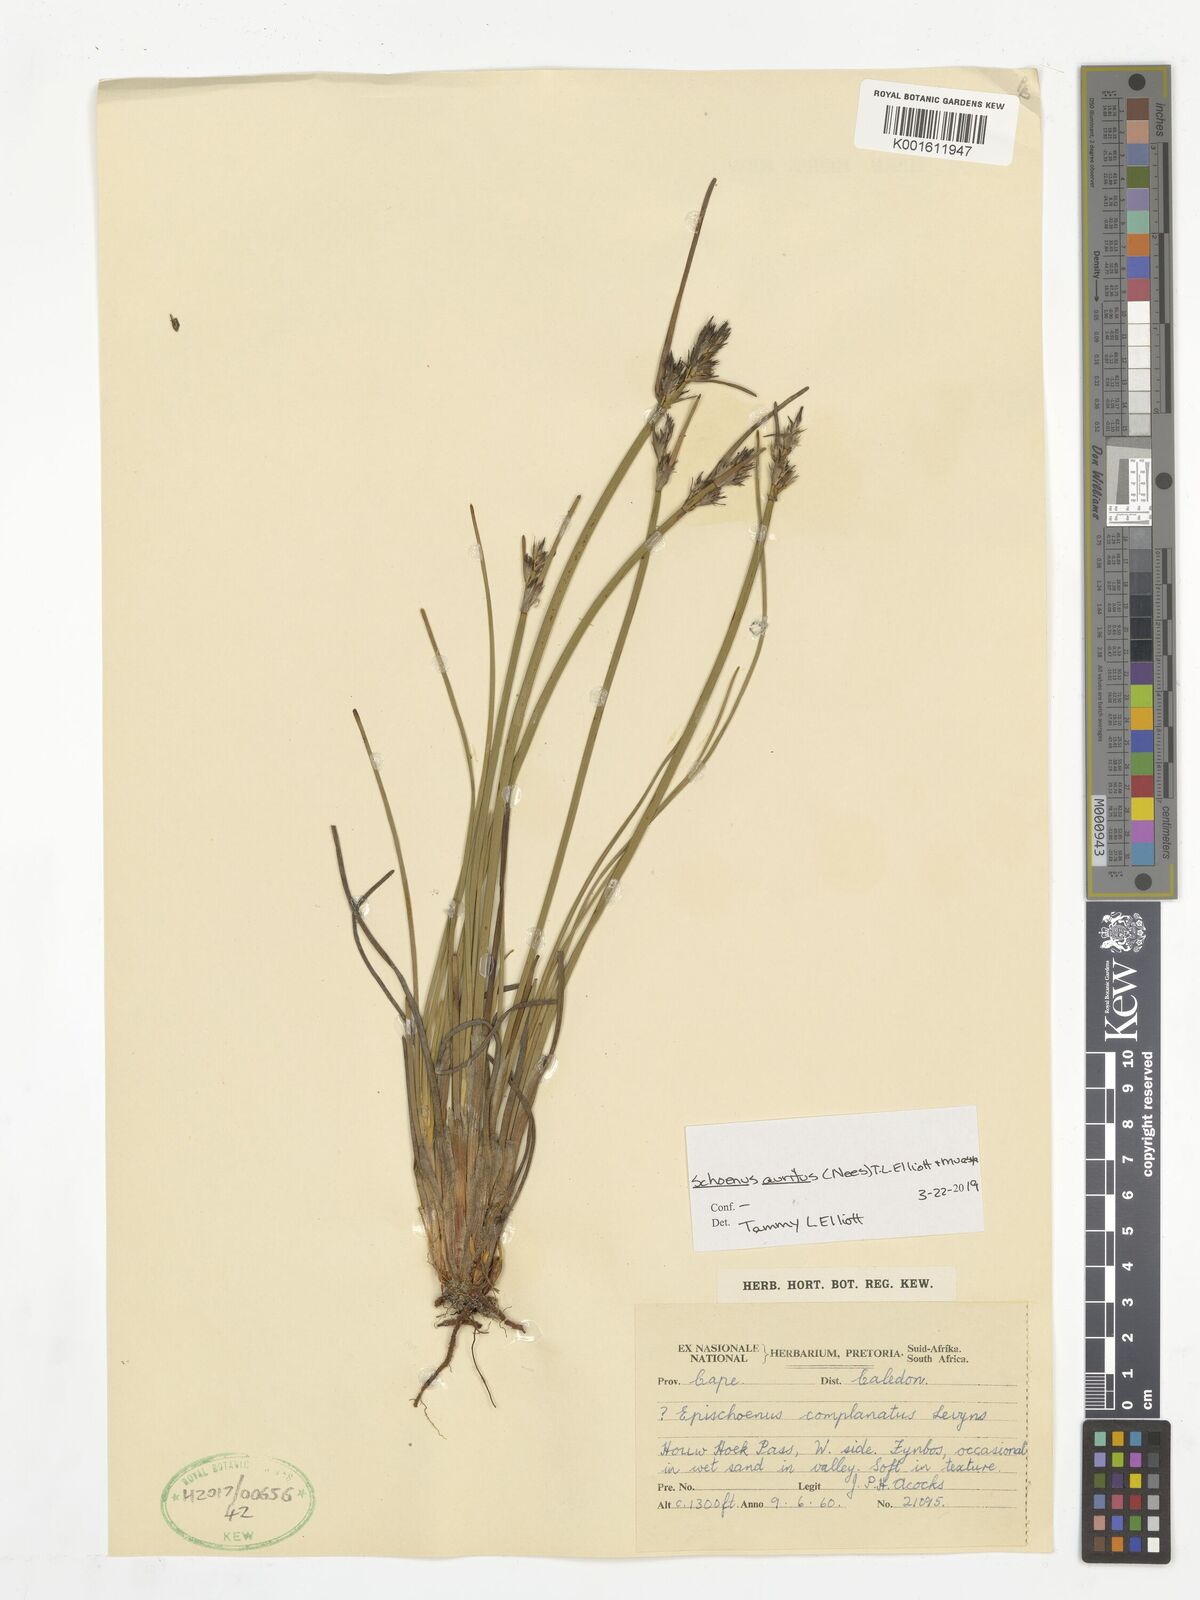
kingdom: Plantae
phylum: Tracheophyta
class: Liliopsida
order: Poales
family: Cyperaceae
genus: Schoenus
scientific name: Schoenus auritus
